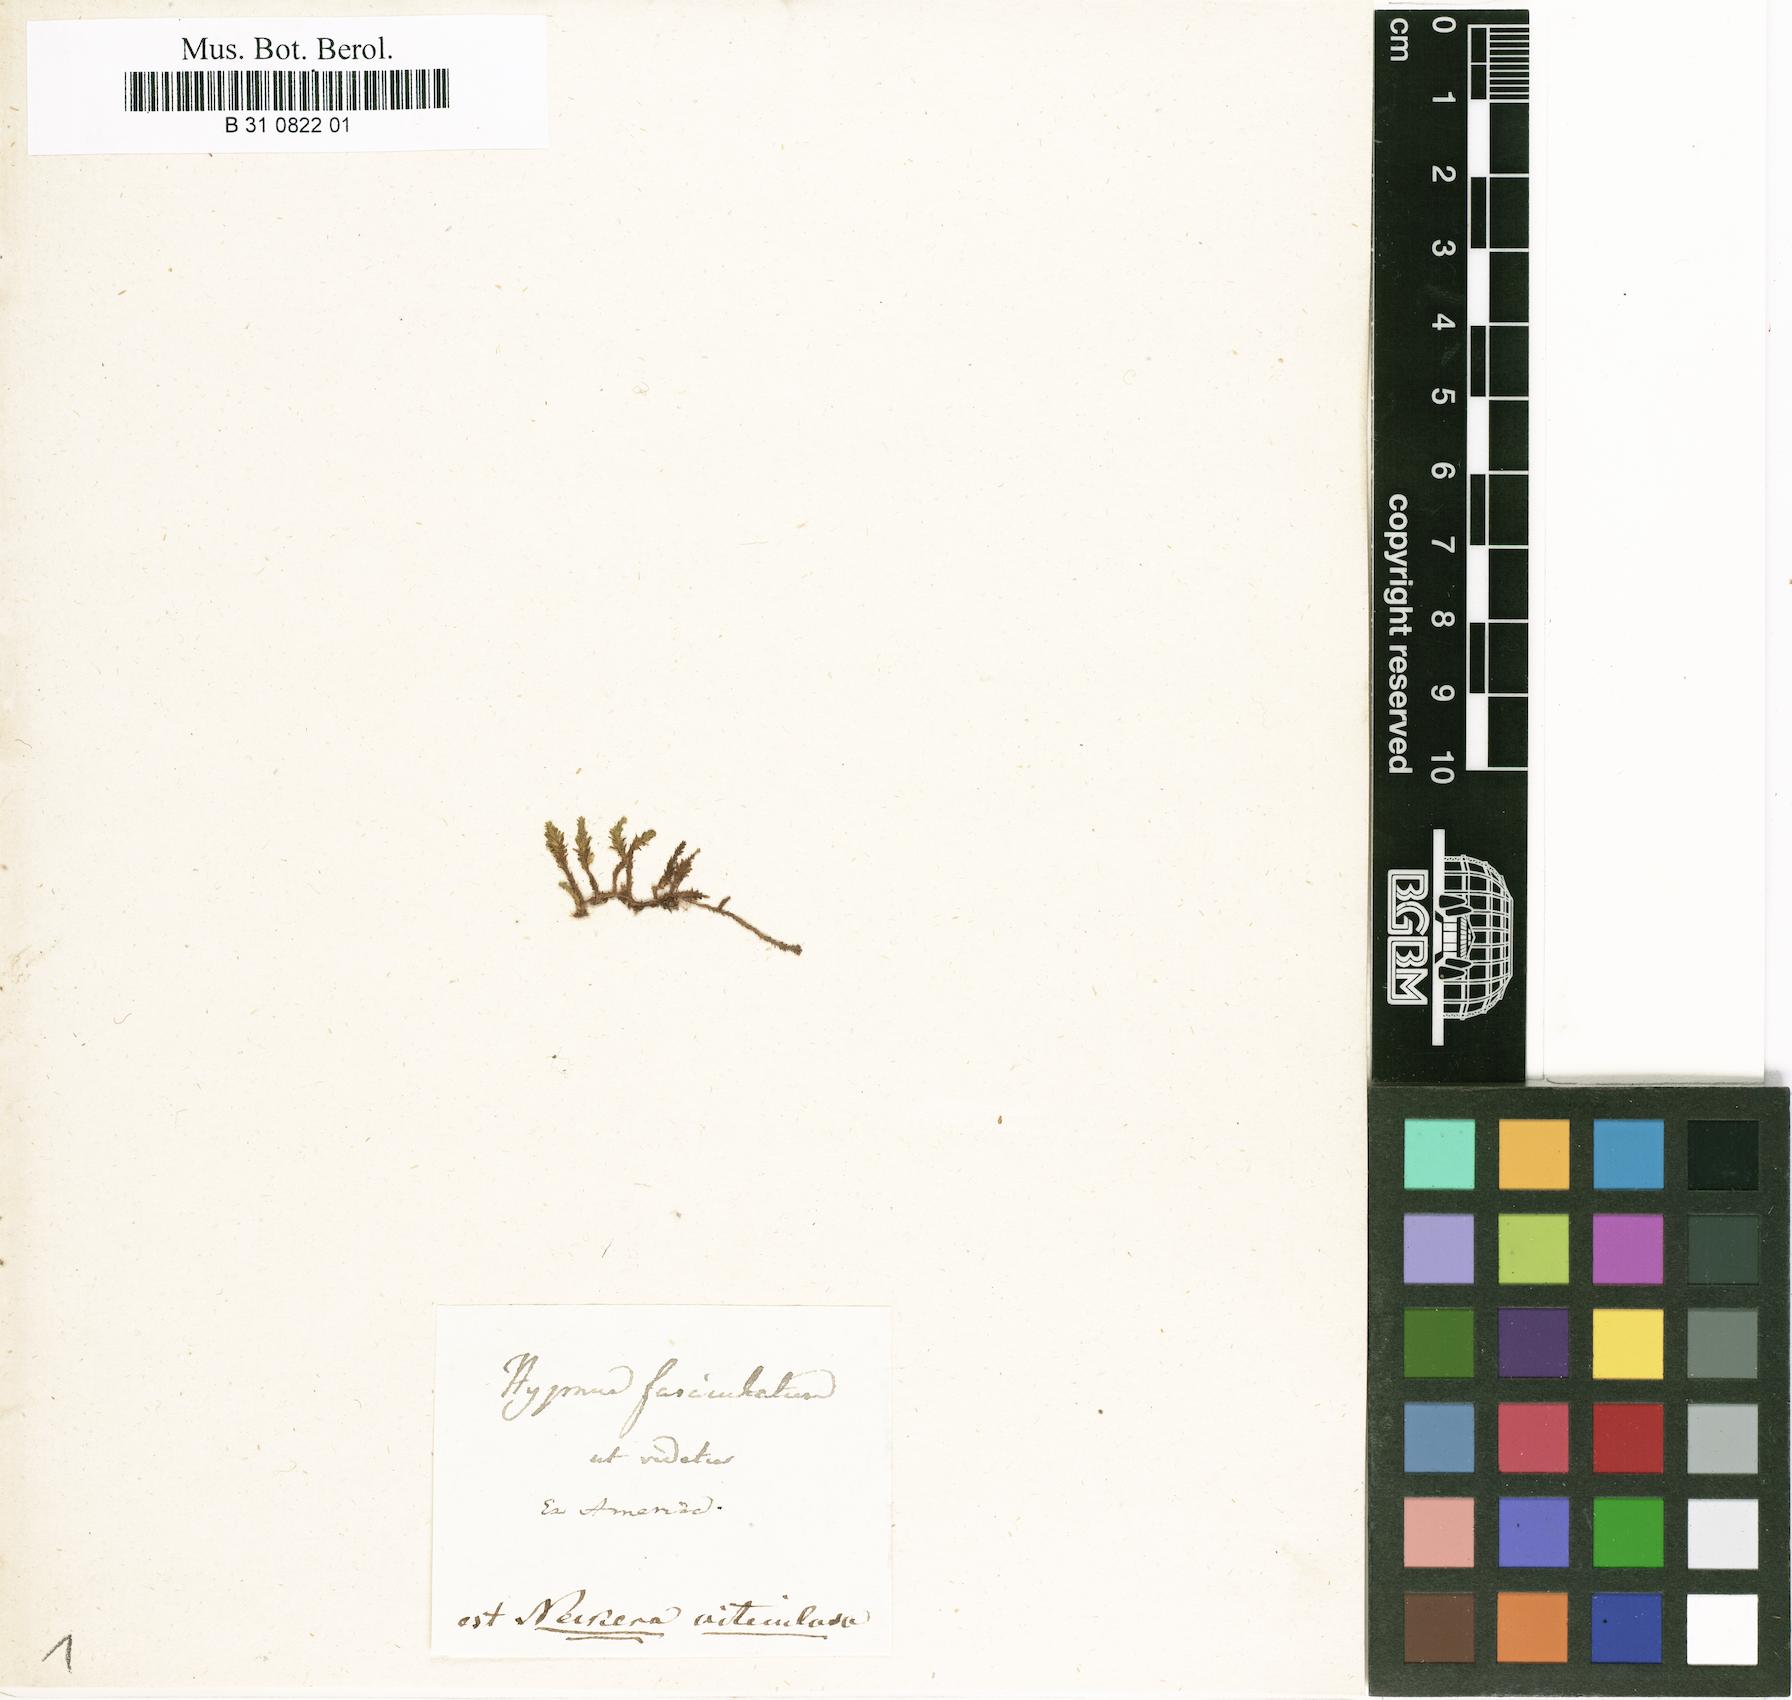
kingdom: Plantae
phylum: Bryophyta
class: Bryopsida
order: Hypnales
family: Neckeraceae
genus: Thamnobryum
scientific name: Thamnobryum fasciculatum
